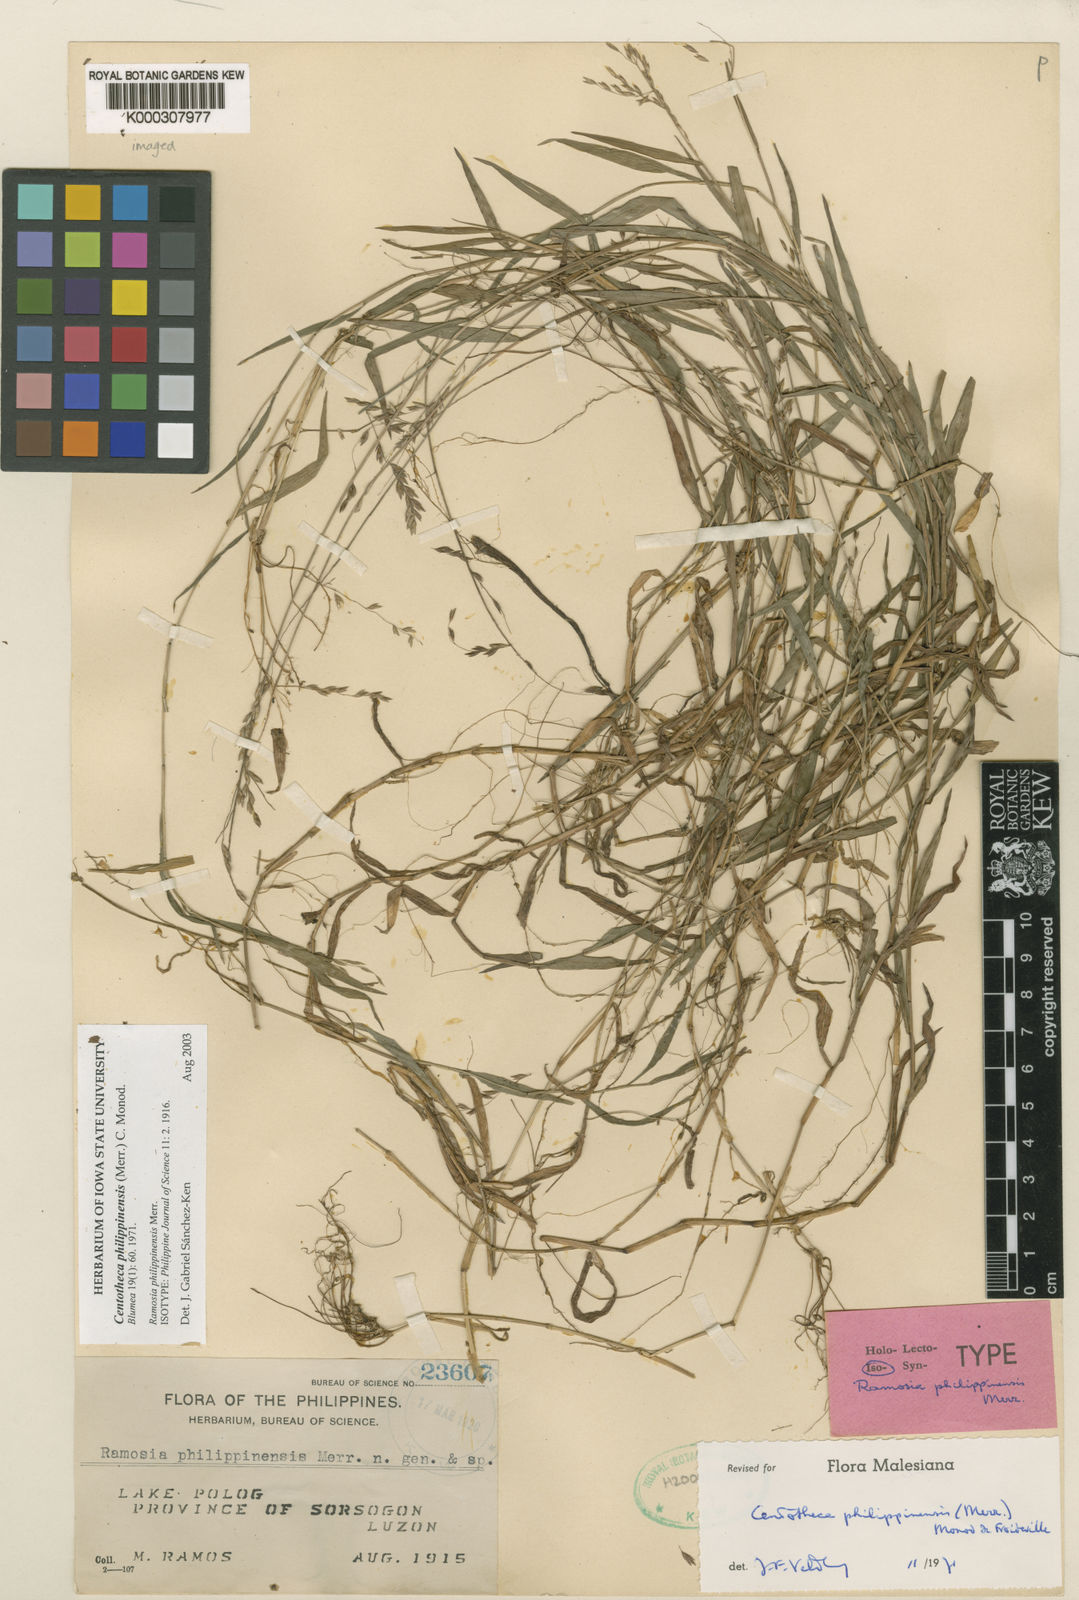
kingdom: Plantae
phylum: Tracheophyta
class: Liliopsida
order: Poales
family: Poaceae
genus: Centotheca
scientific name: Centotheca philippinensis
